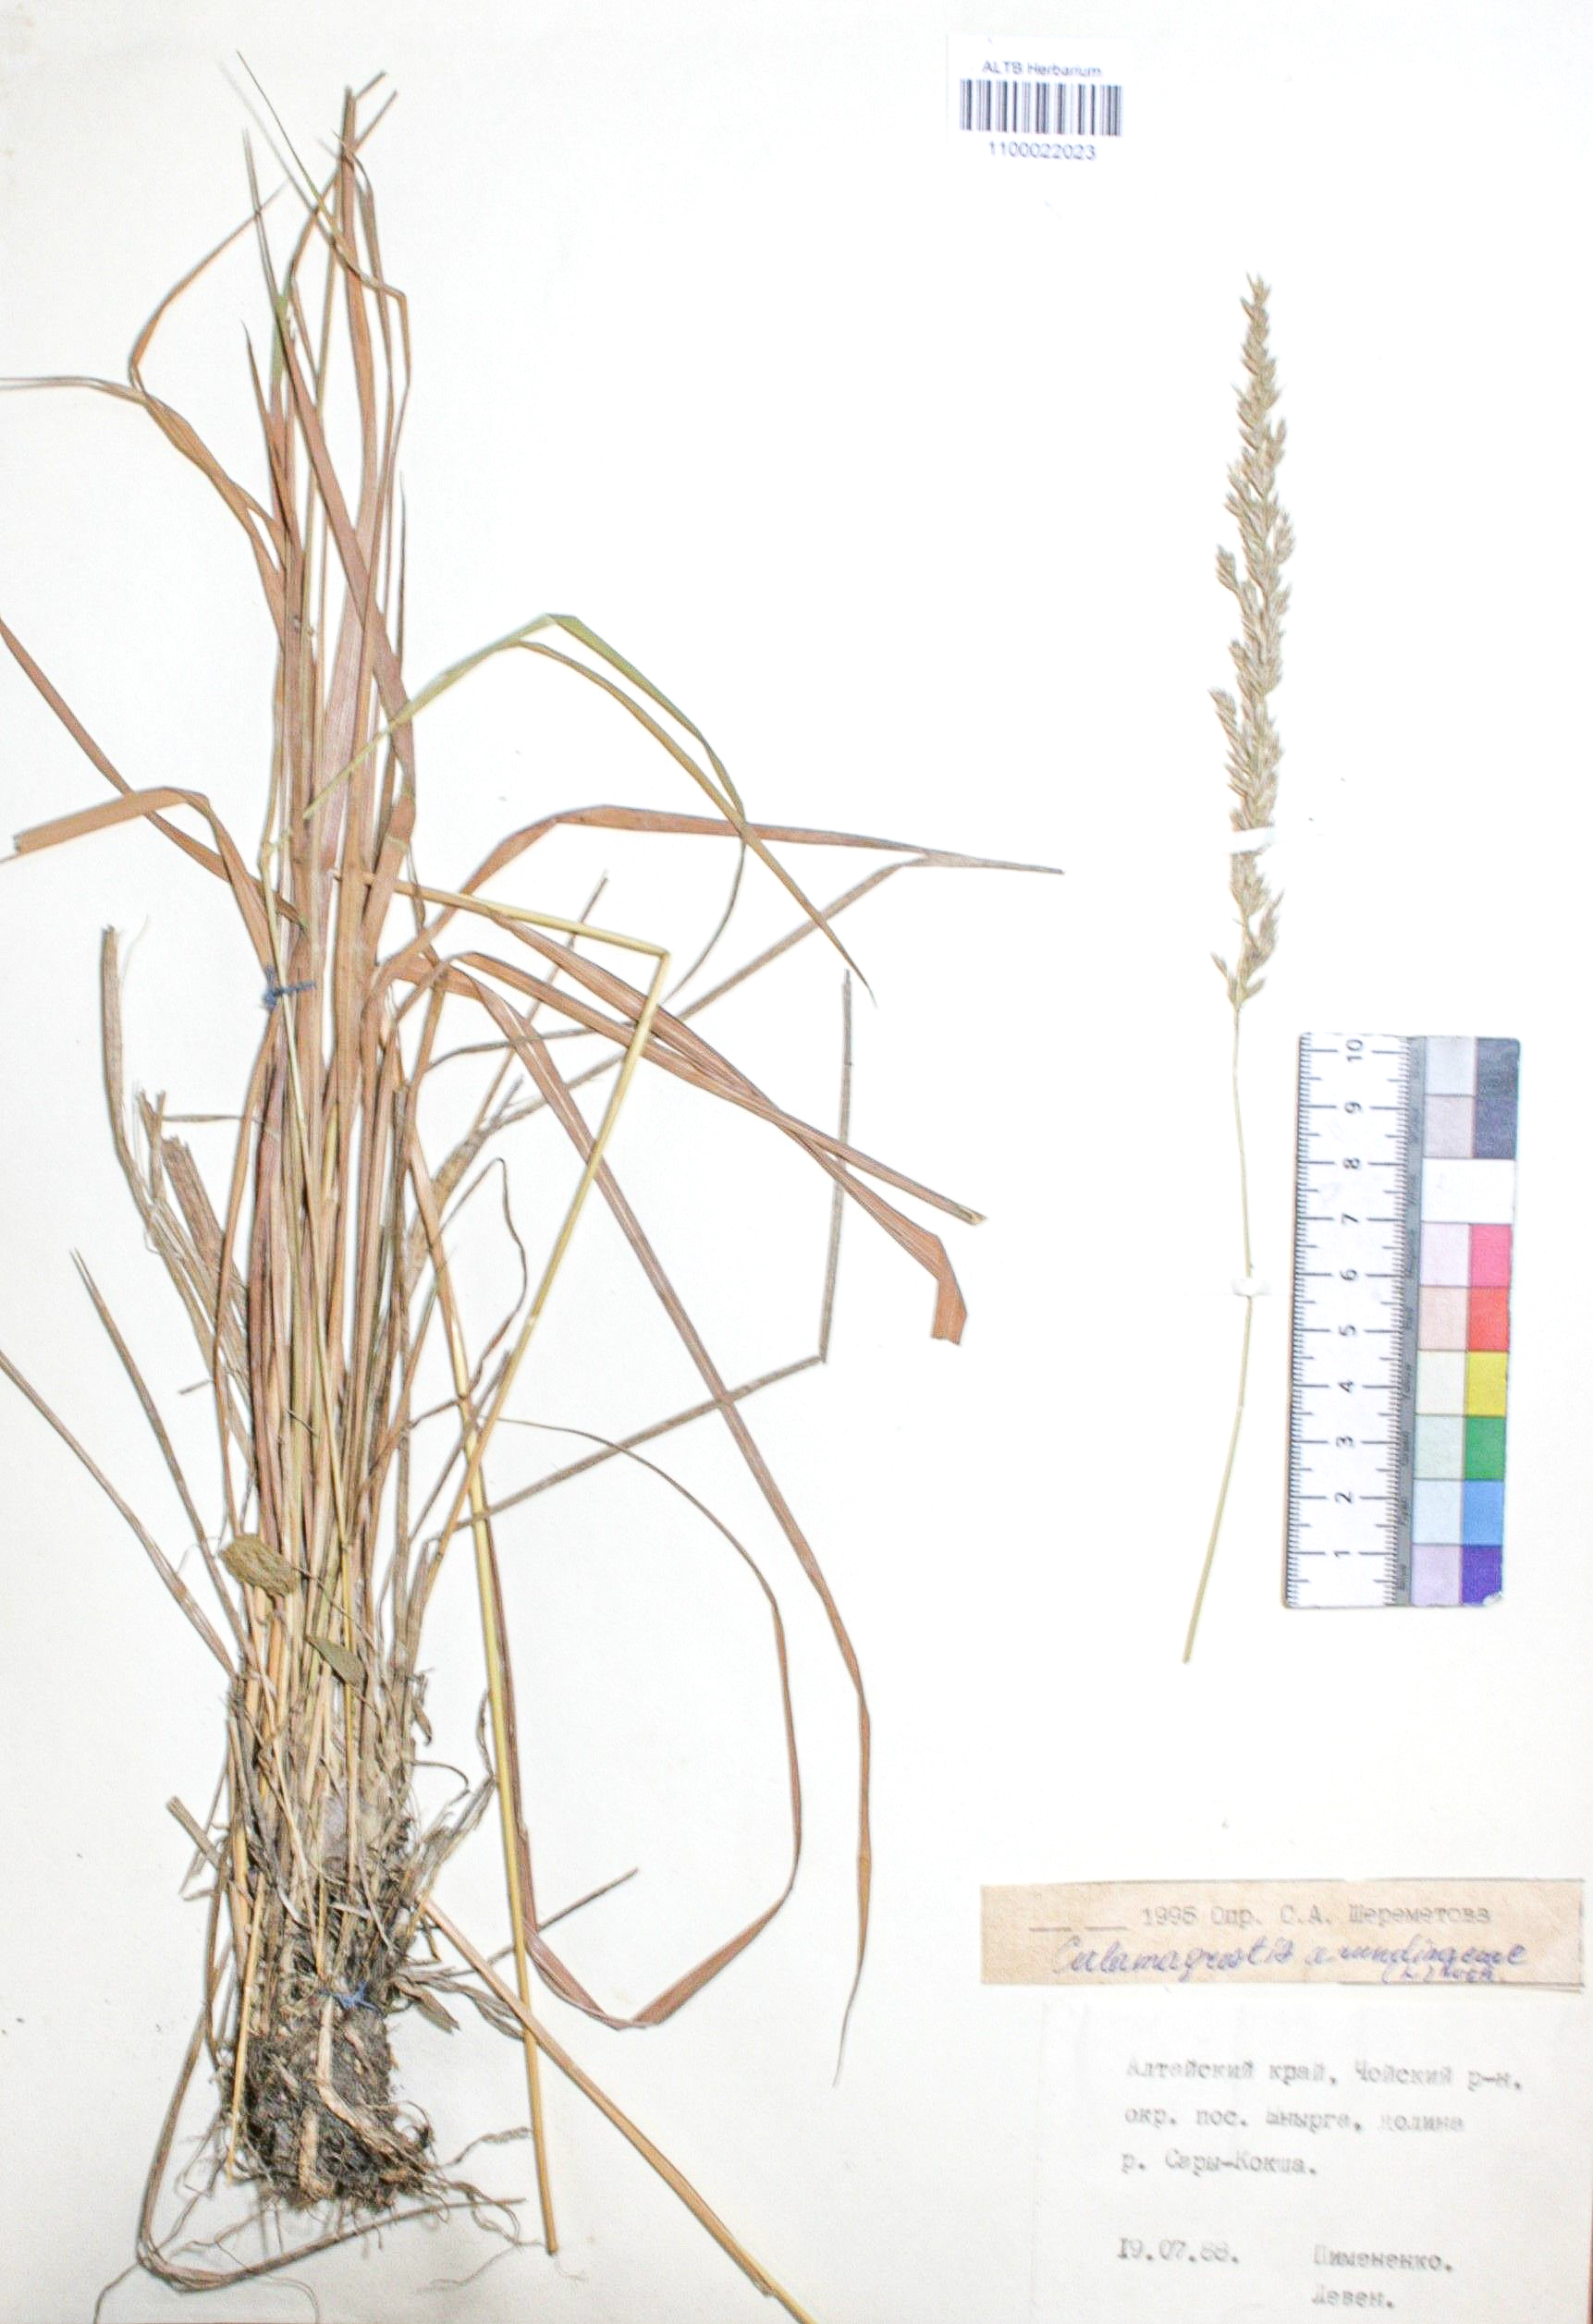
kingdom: Plantae
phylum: Tracheophyta
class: Liliopsida
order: Poales
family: Poaceae
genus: Calamagrostis
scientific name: Calamagrostis arundinacea
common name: Metskastik
